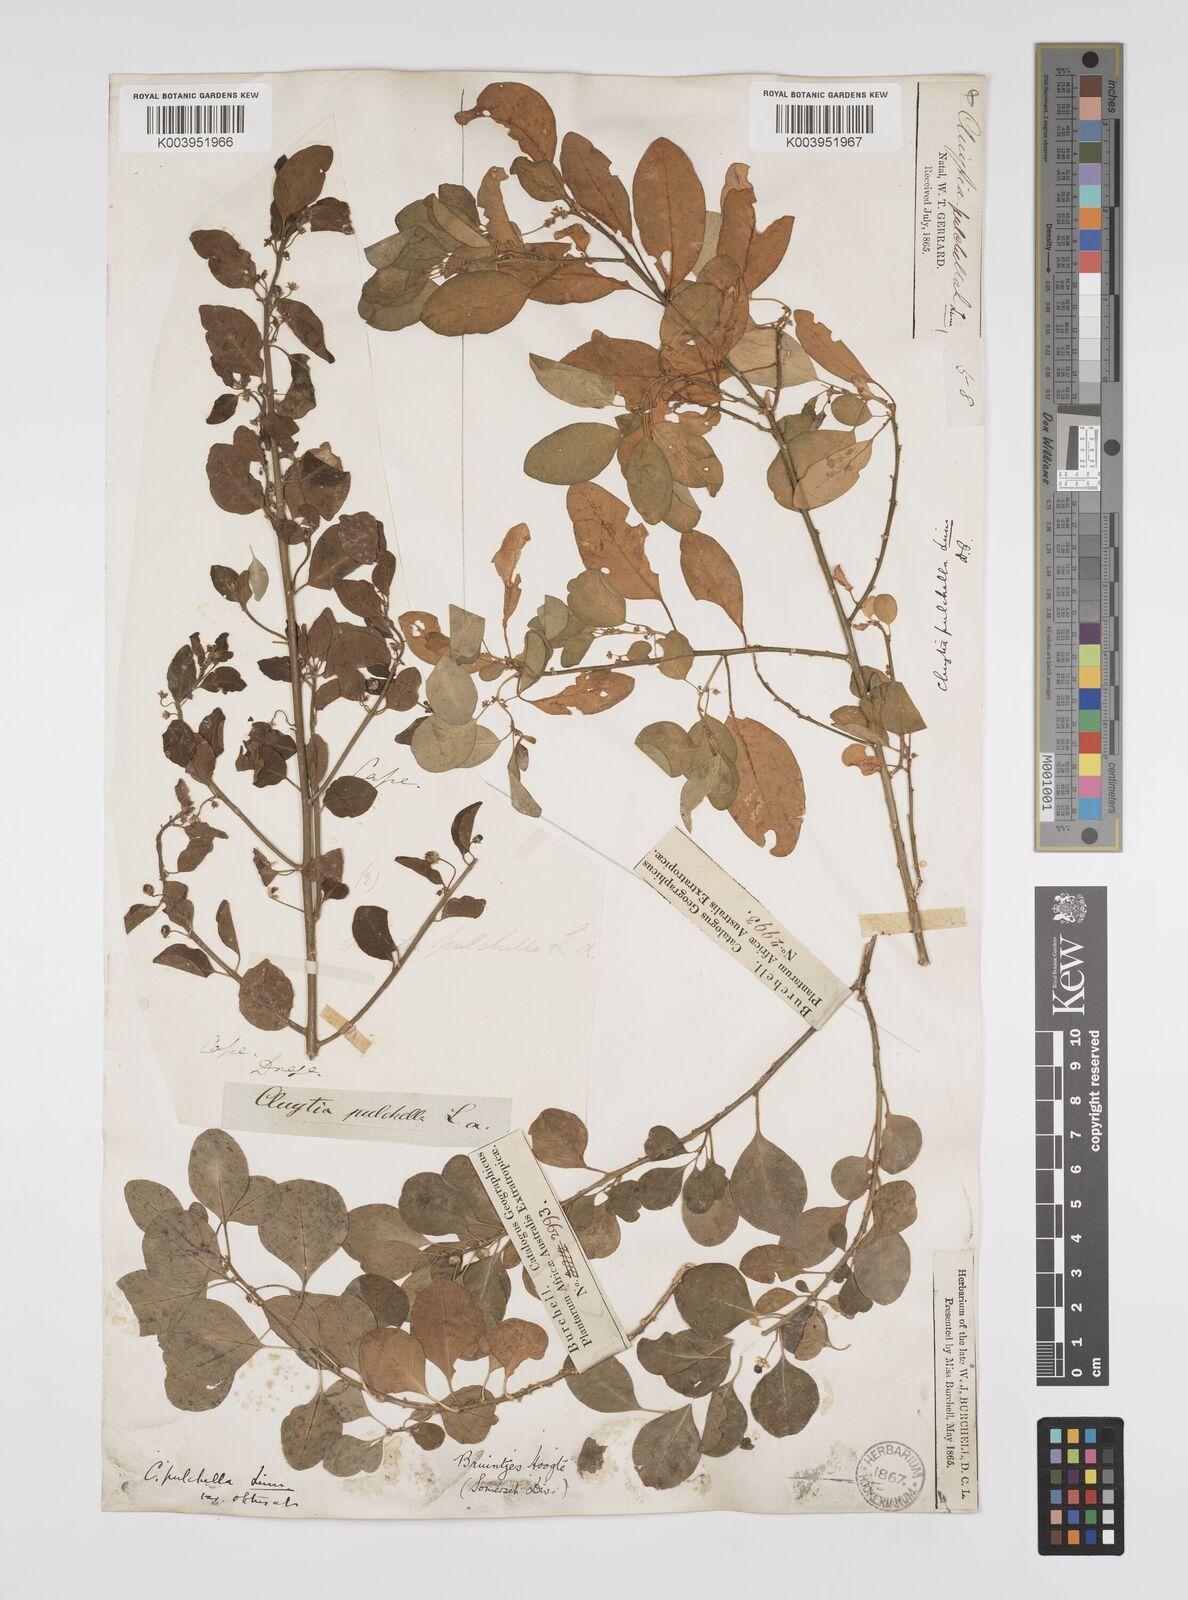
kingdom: Plantae
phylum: Tracheophyta
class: Magnoliopsida
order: Malpighiales
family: Peraceae
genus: Clutia
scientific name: Clutia pulchella
